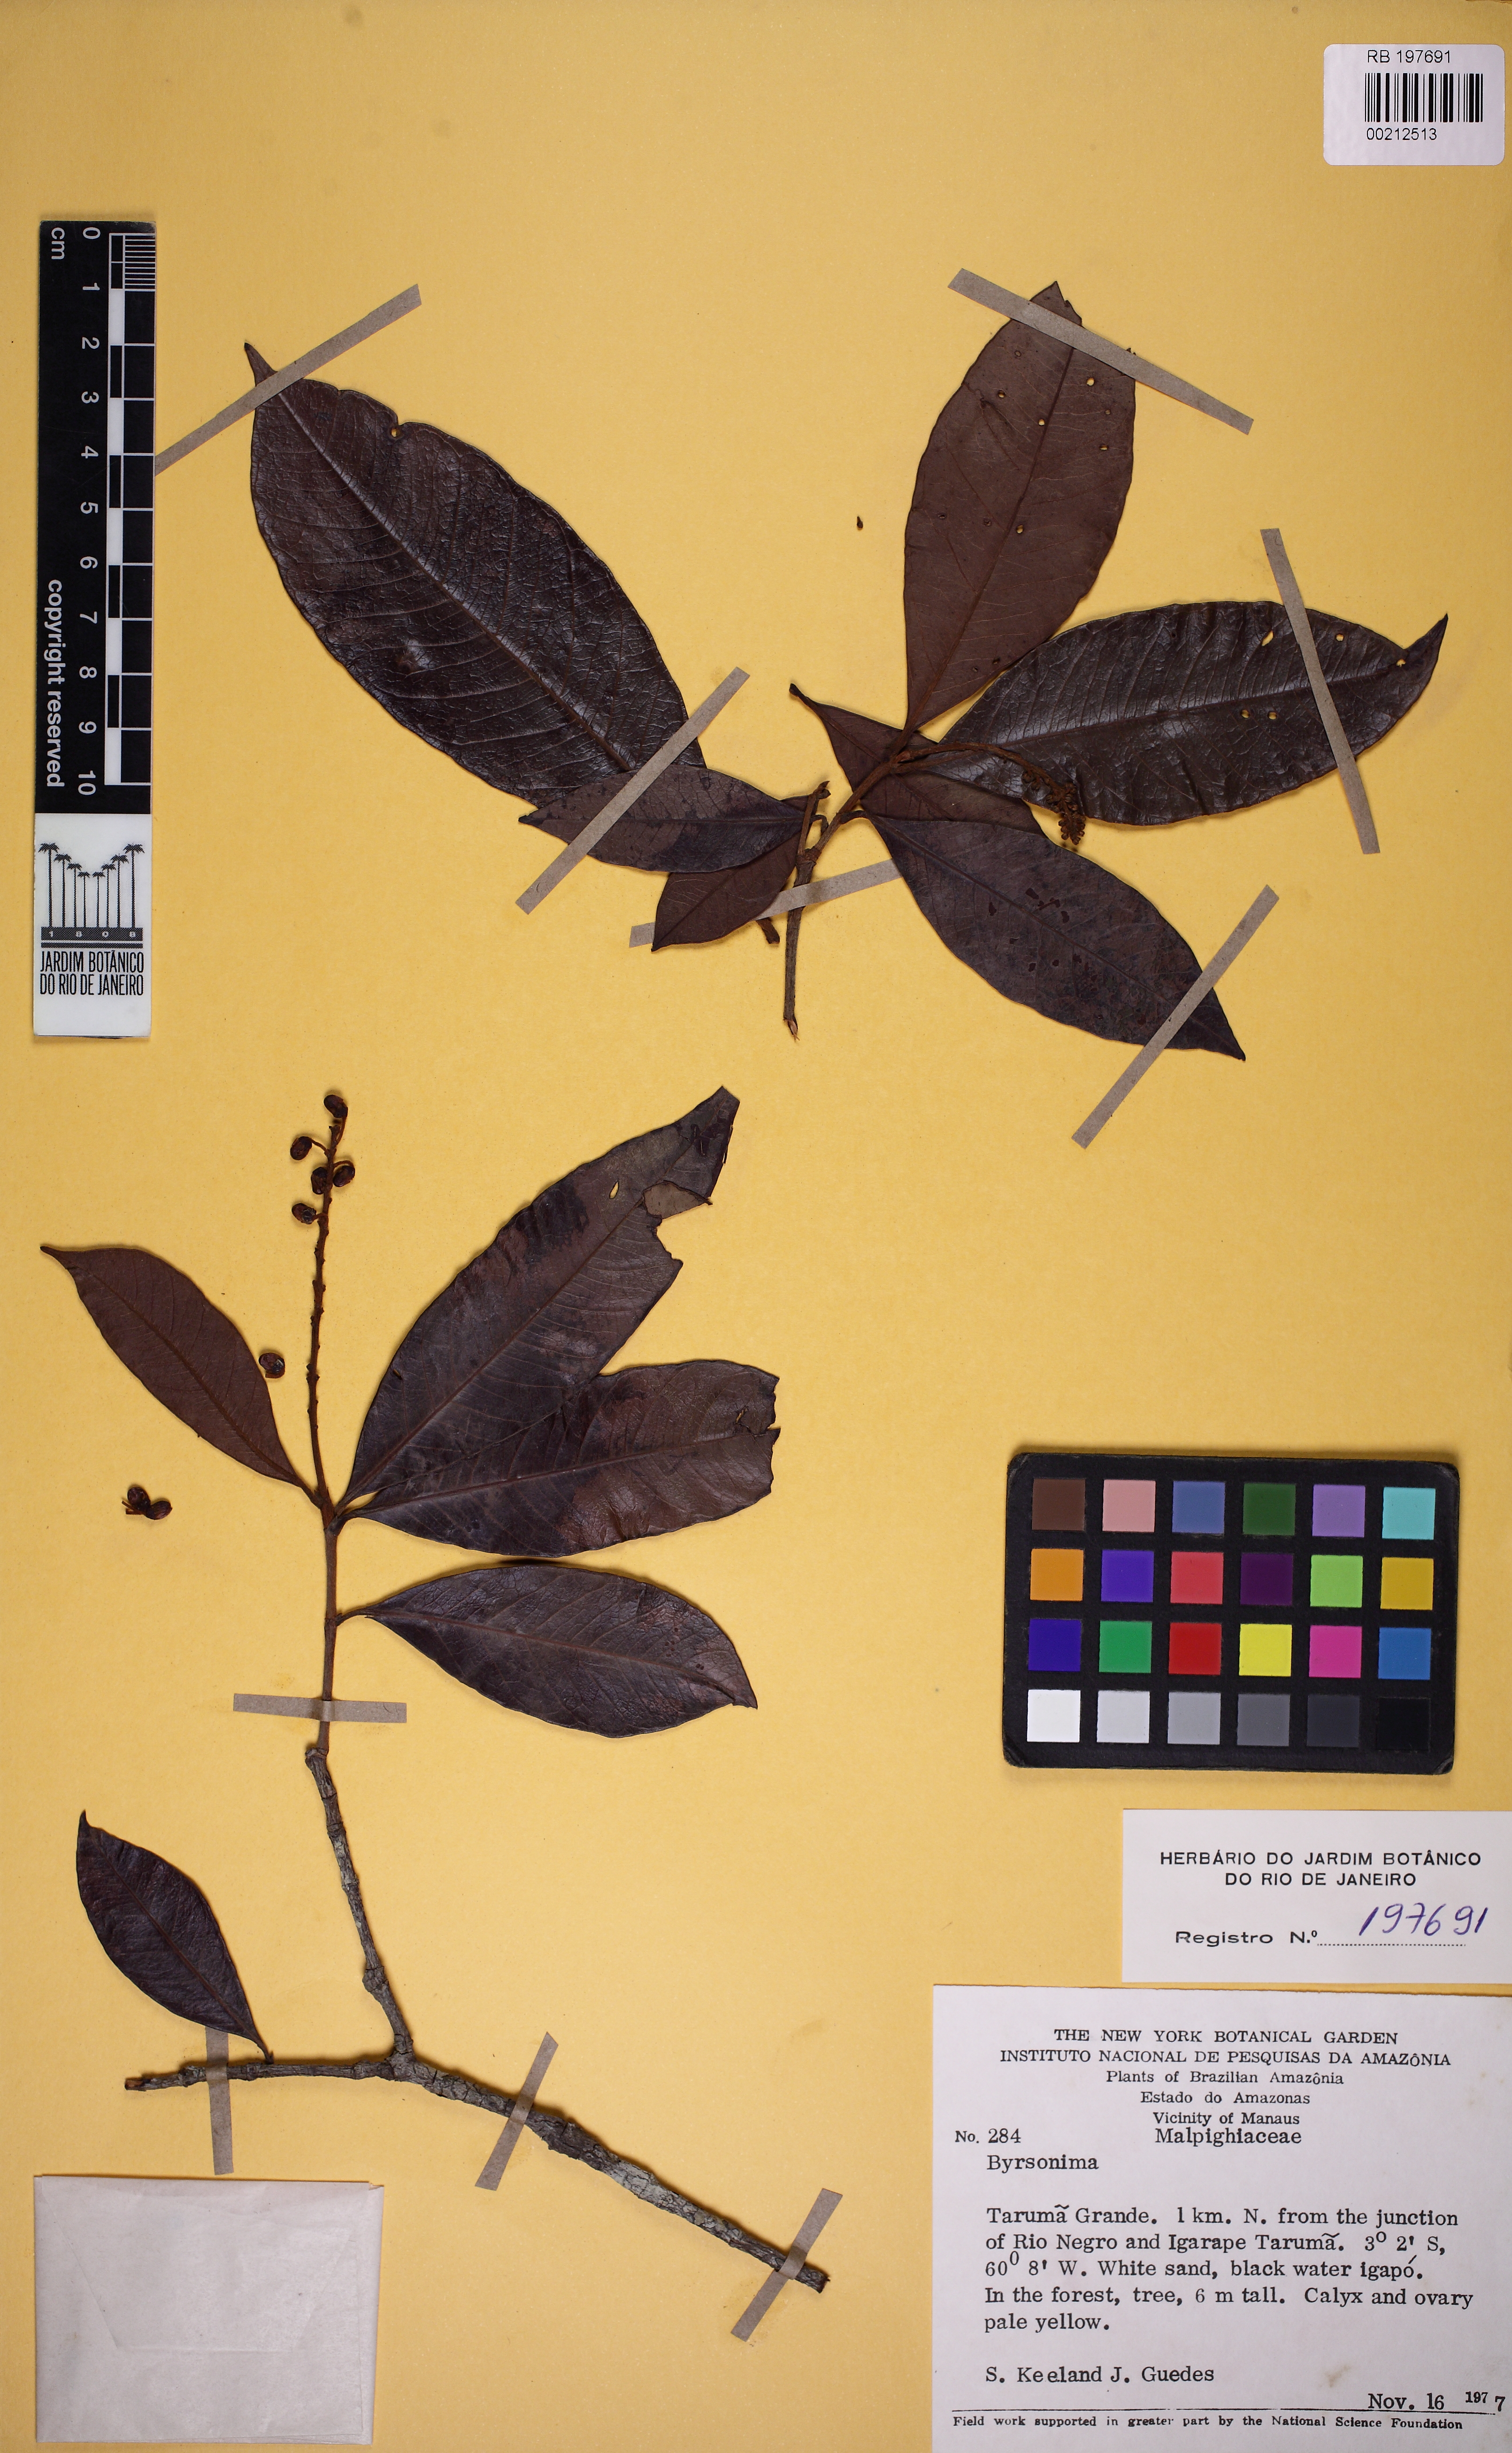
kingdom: Plantae
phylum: Tracheophyta
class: Magnoliopsida
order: Malpighiales
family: Malpighiaceae
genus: Byrsonima
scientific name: Byrsonima
